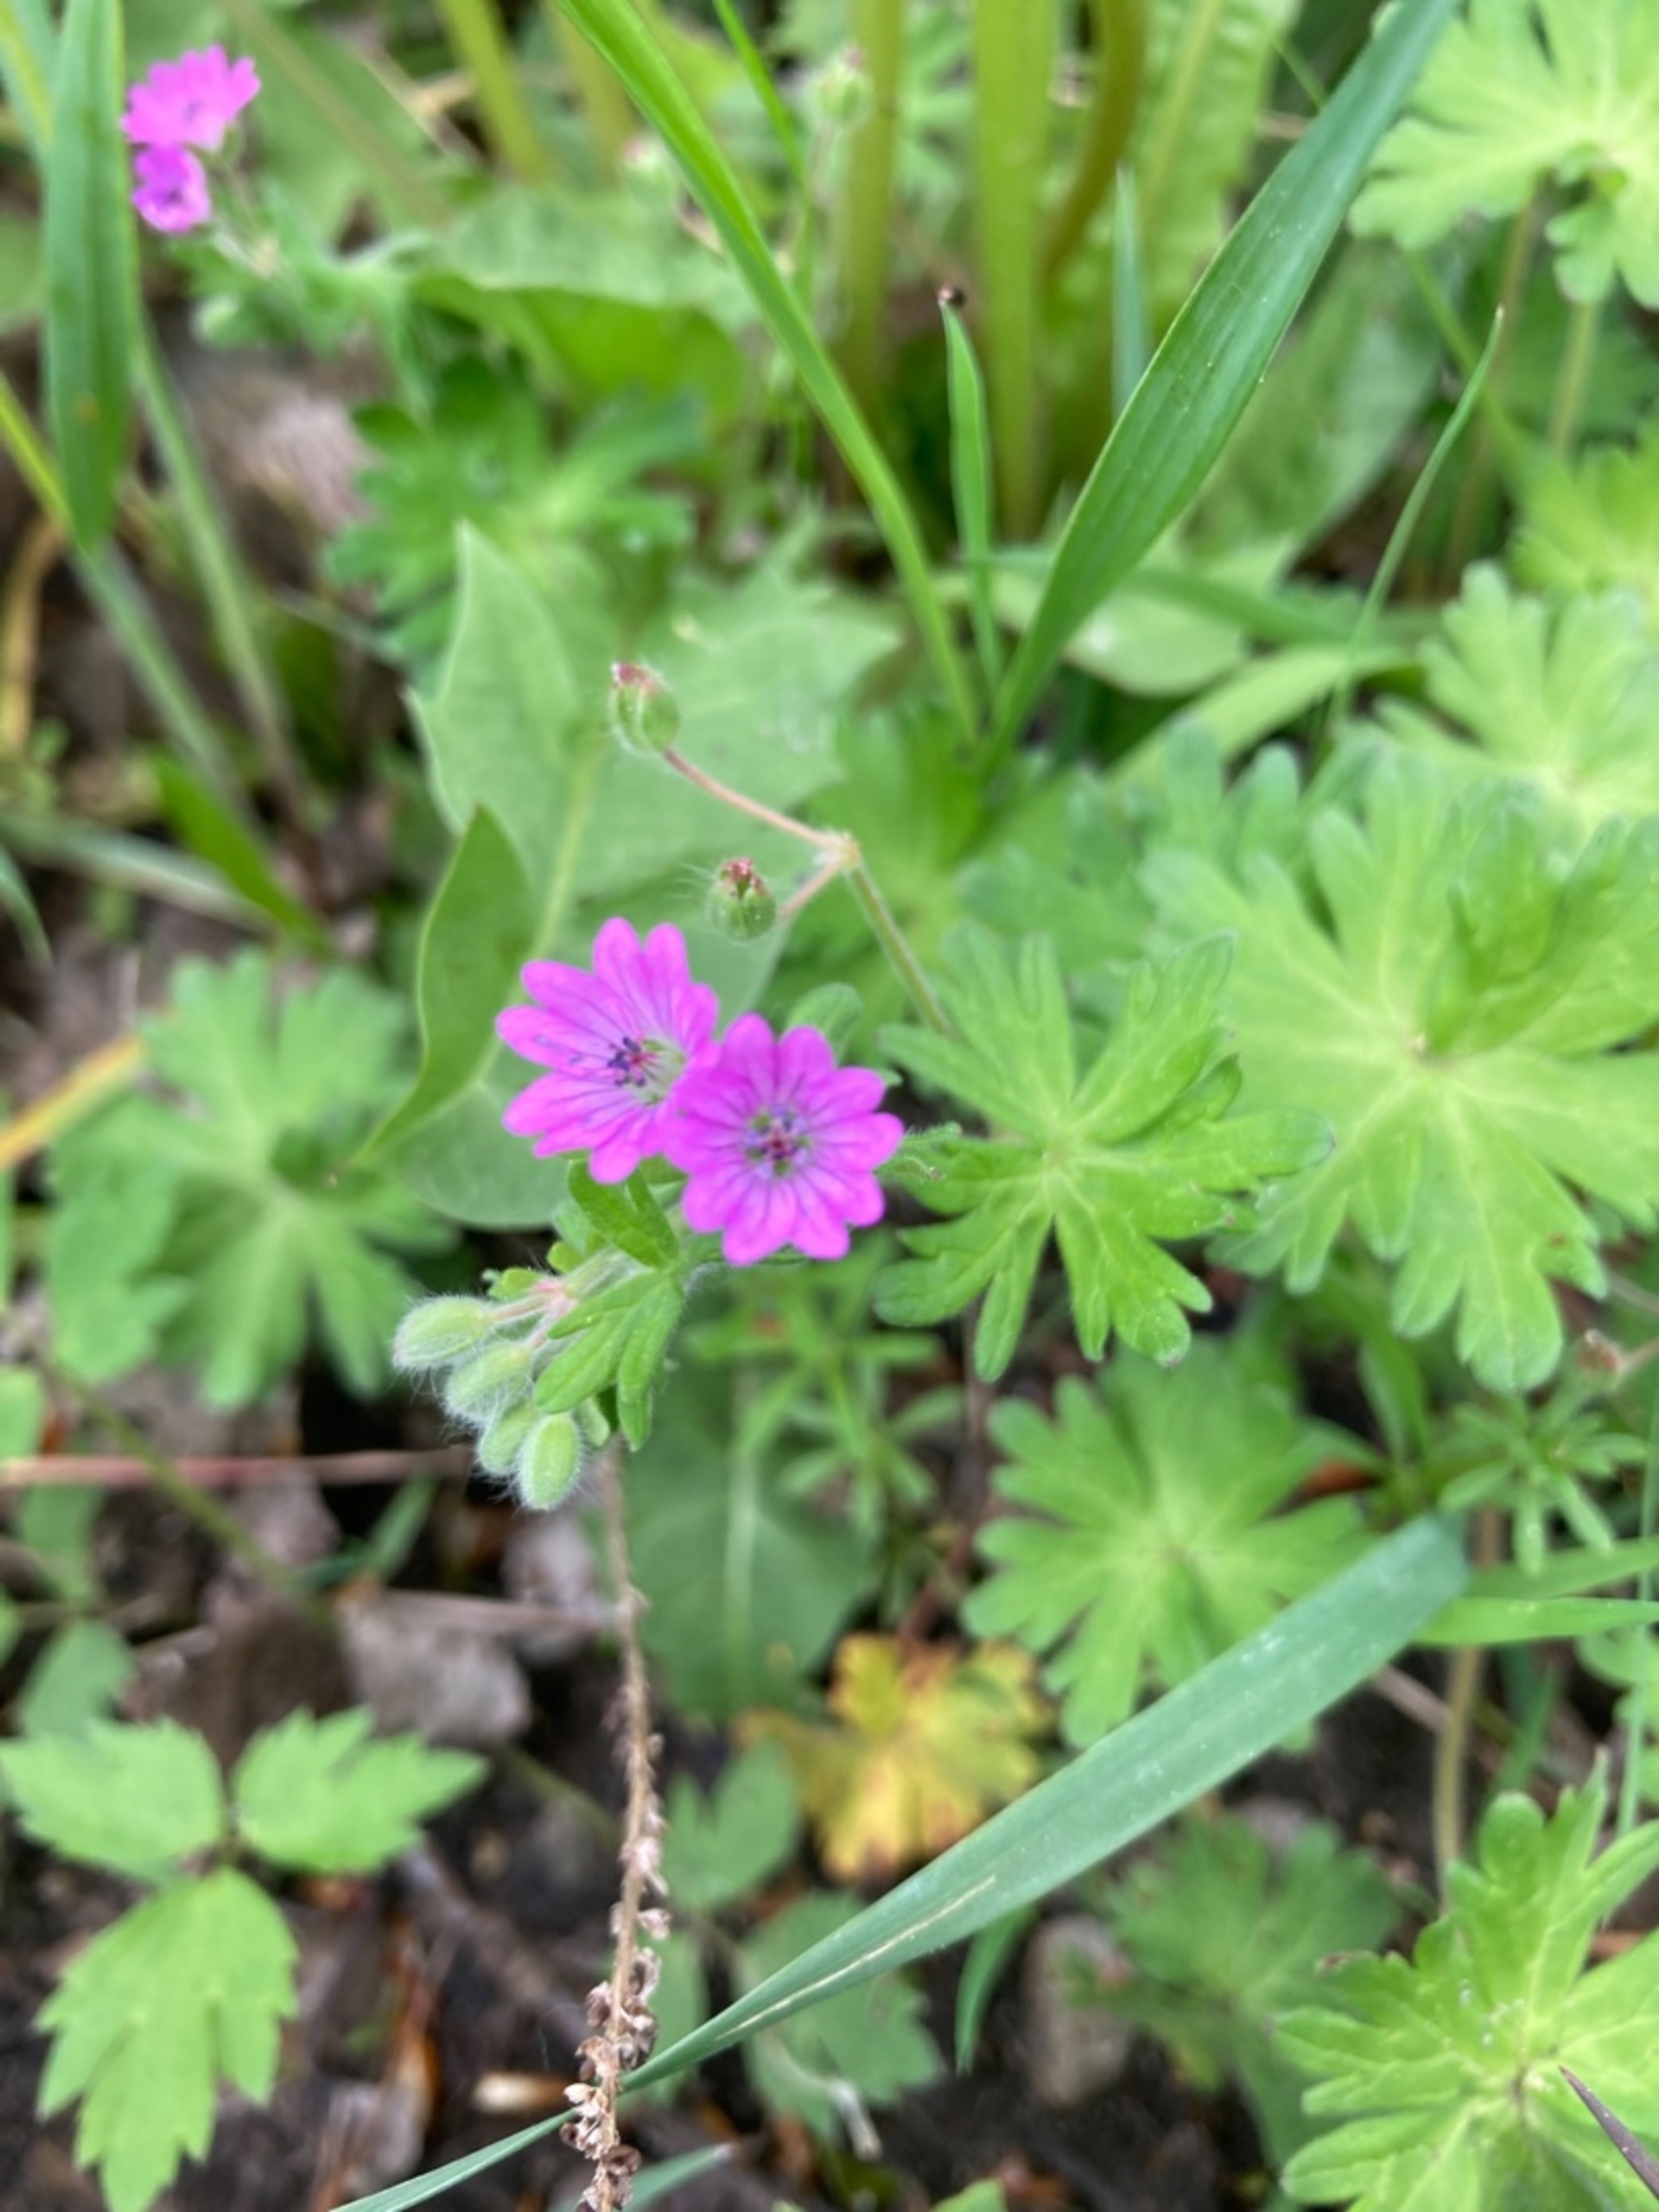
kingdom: Plantae
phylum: Tracheophyta
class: Magnoliopsida
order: Geraniales
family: Geraniaceae
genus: Geranium
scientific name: Geranium pyrenaicum
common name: Pyrenæisk storkenæb
